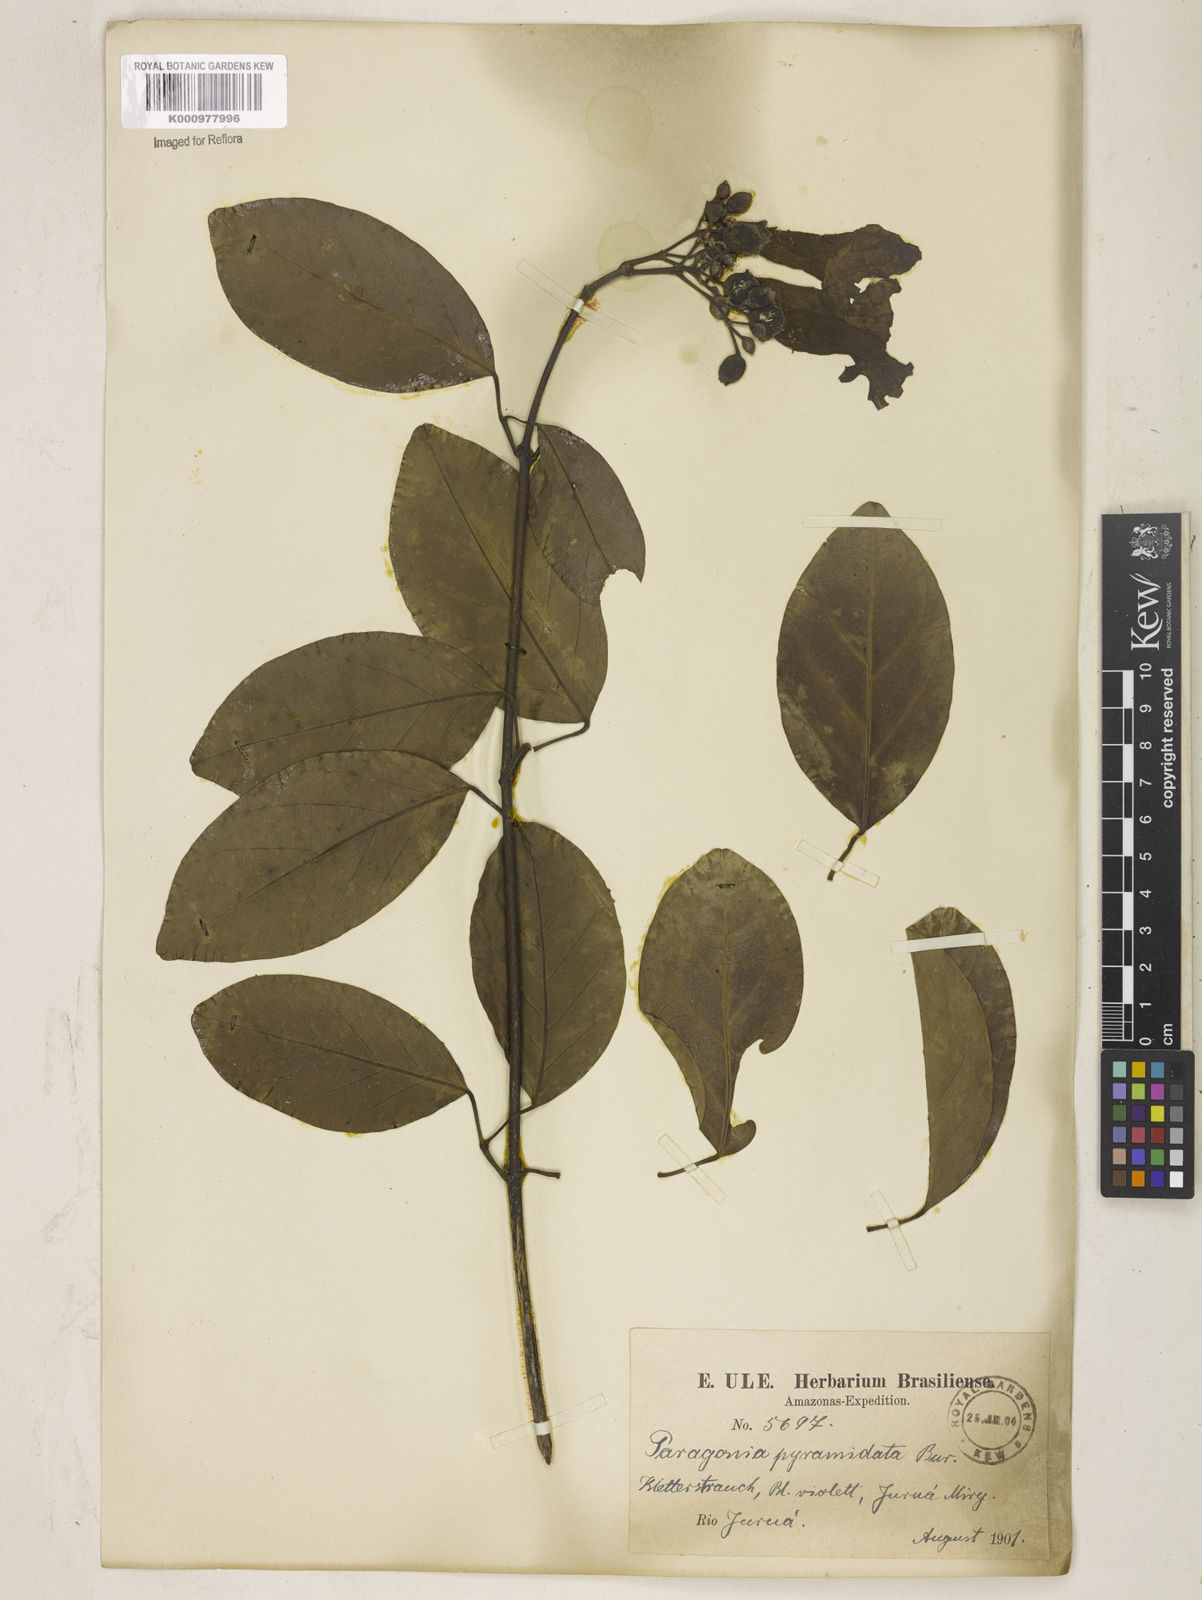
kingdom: Plantae
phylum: Tracheophyta
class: Magnoliopsida
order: Lamiales
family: Bignoniaceae
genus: Tanaecium
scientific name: Tanaecium pyramidatum
